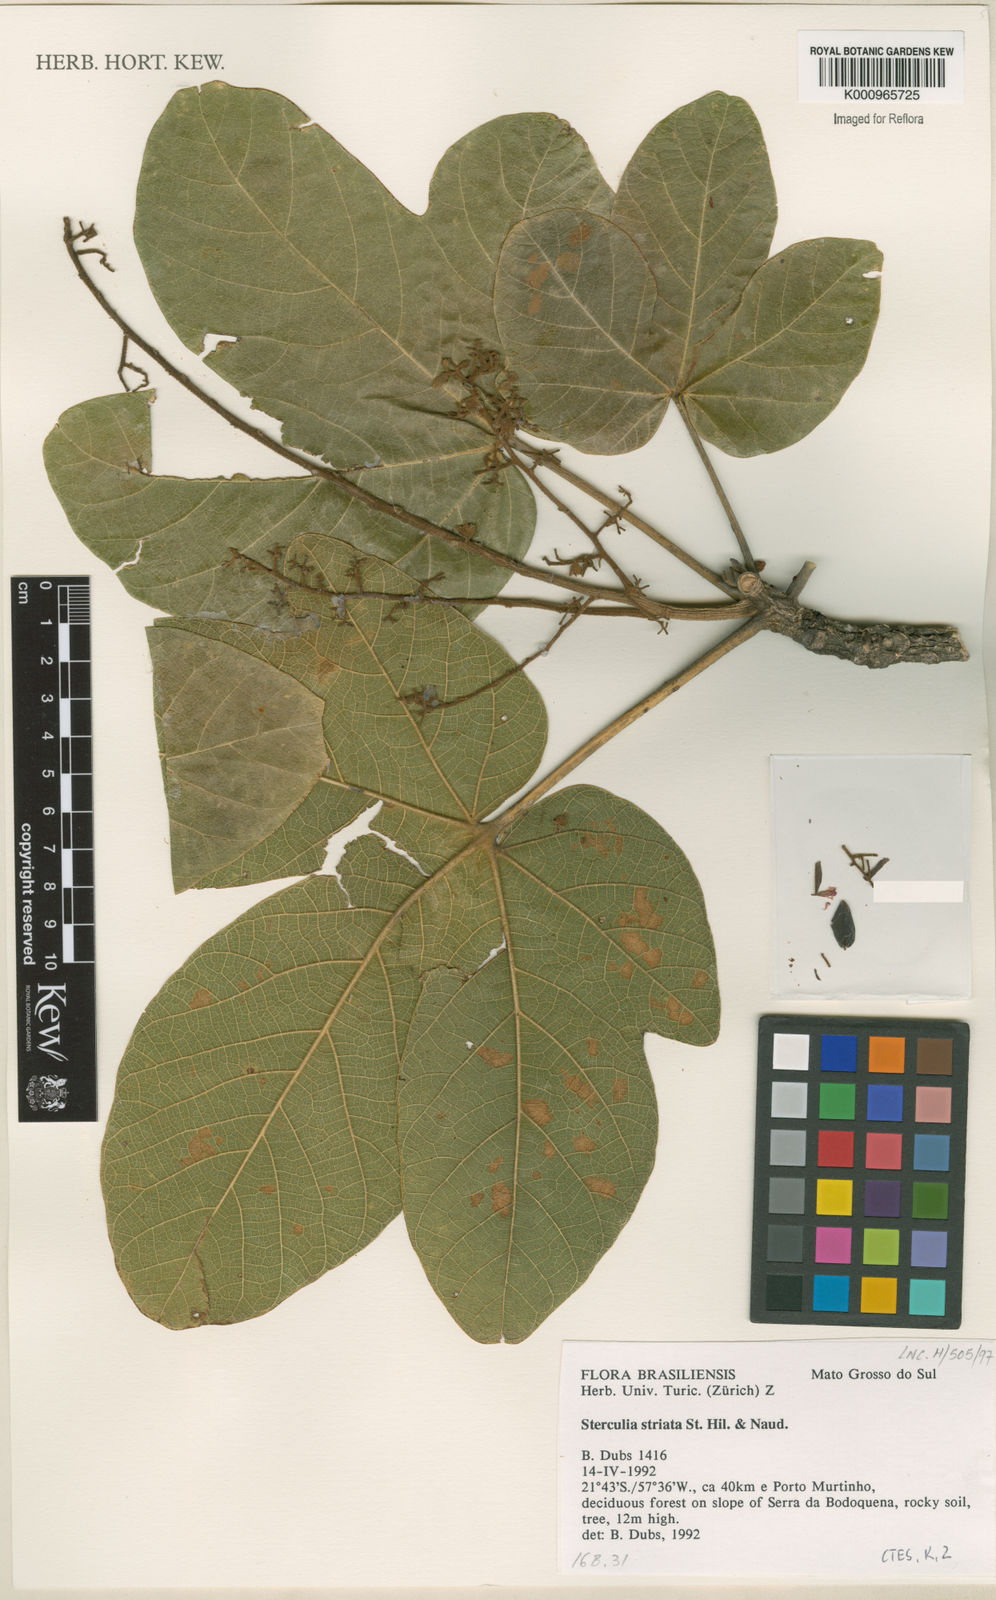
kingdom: Plantae
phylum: Tracheophyta
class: Magnoliopsida
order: Malvales
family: Malvaceae
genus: Sterculia
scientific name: Sterculia striata
